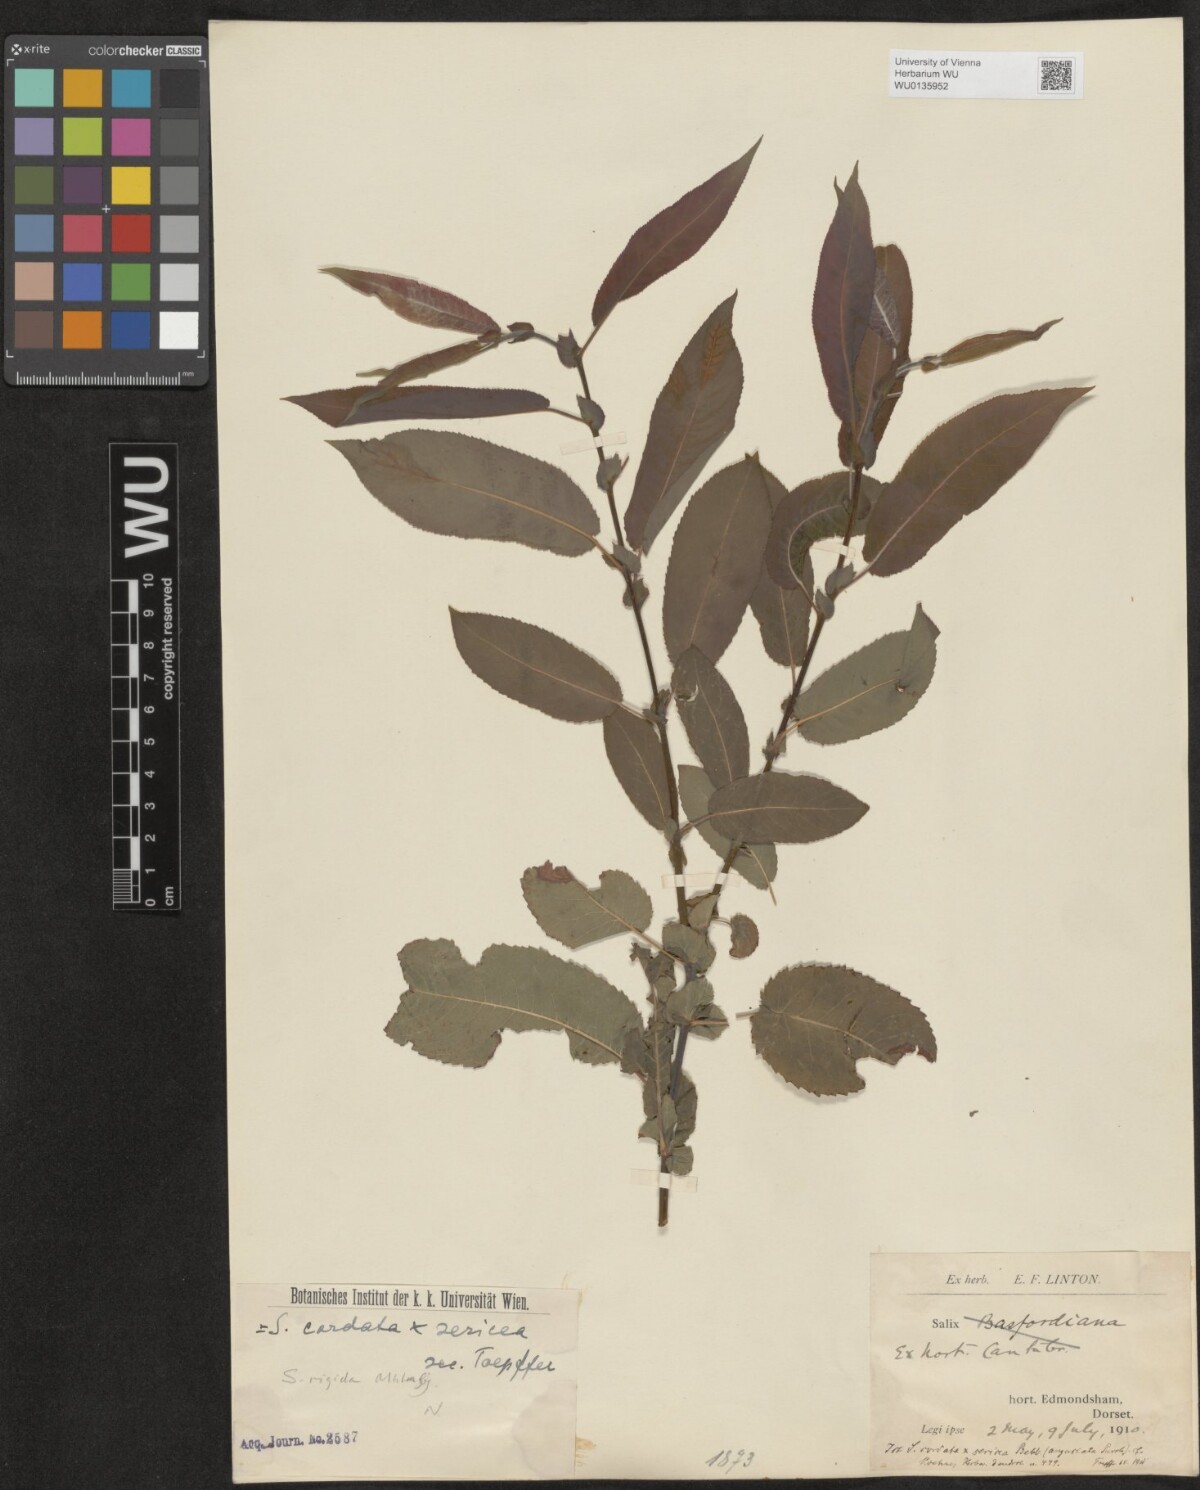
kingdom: Plantae
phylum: Tracheophyta
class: Magnoliopsida
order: Malpighiales
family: Salicaceae
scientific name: Salicaceae
